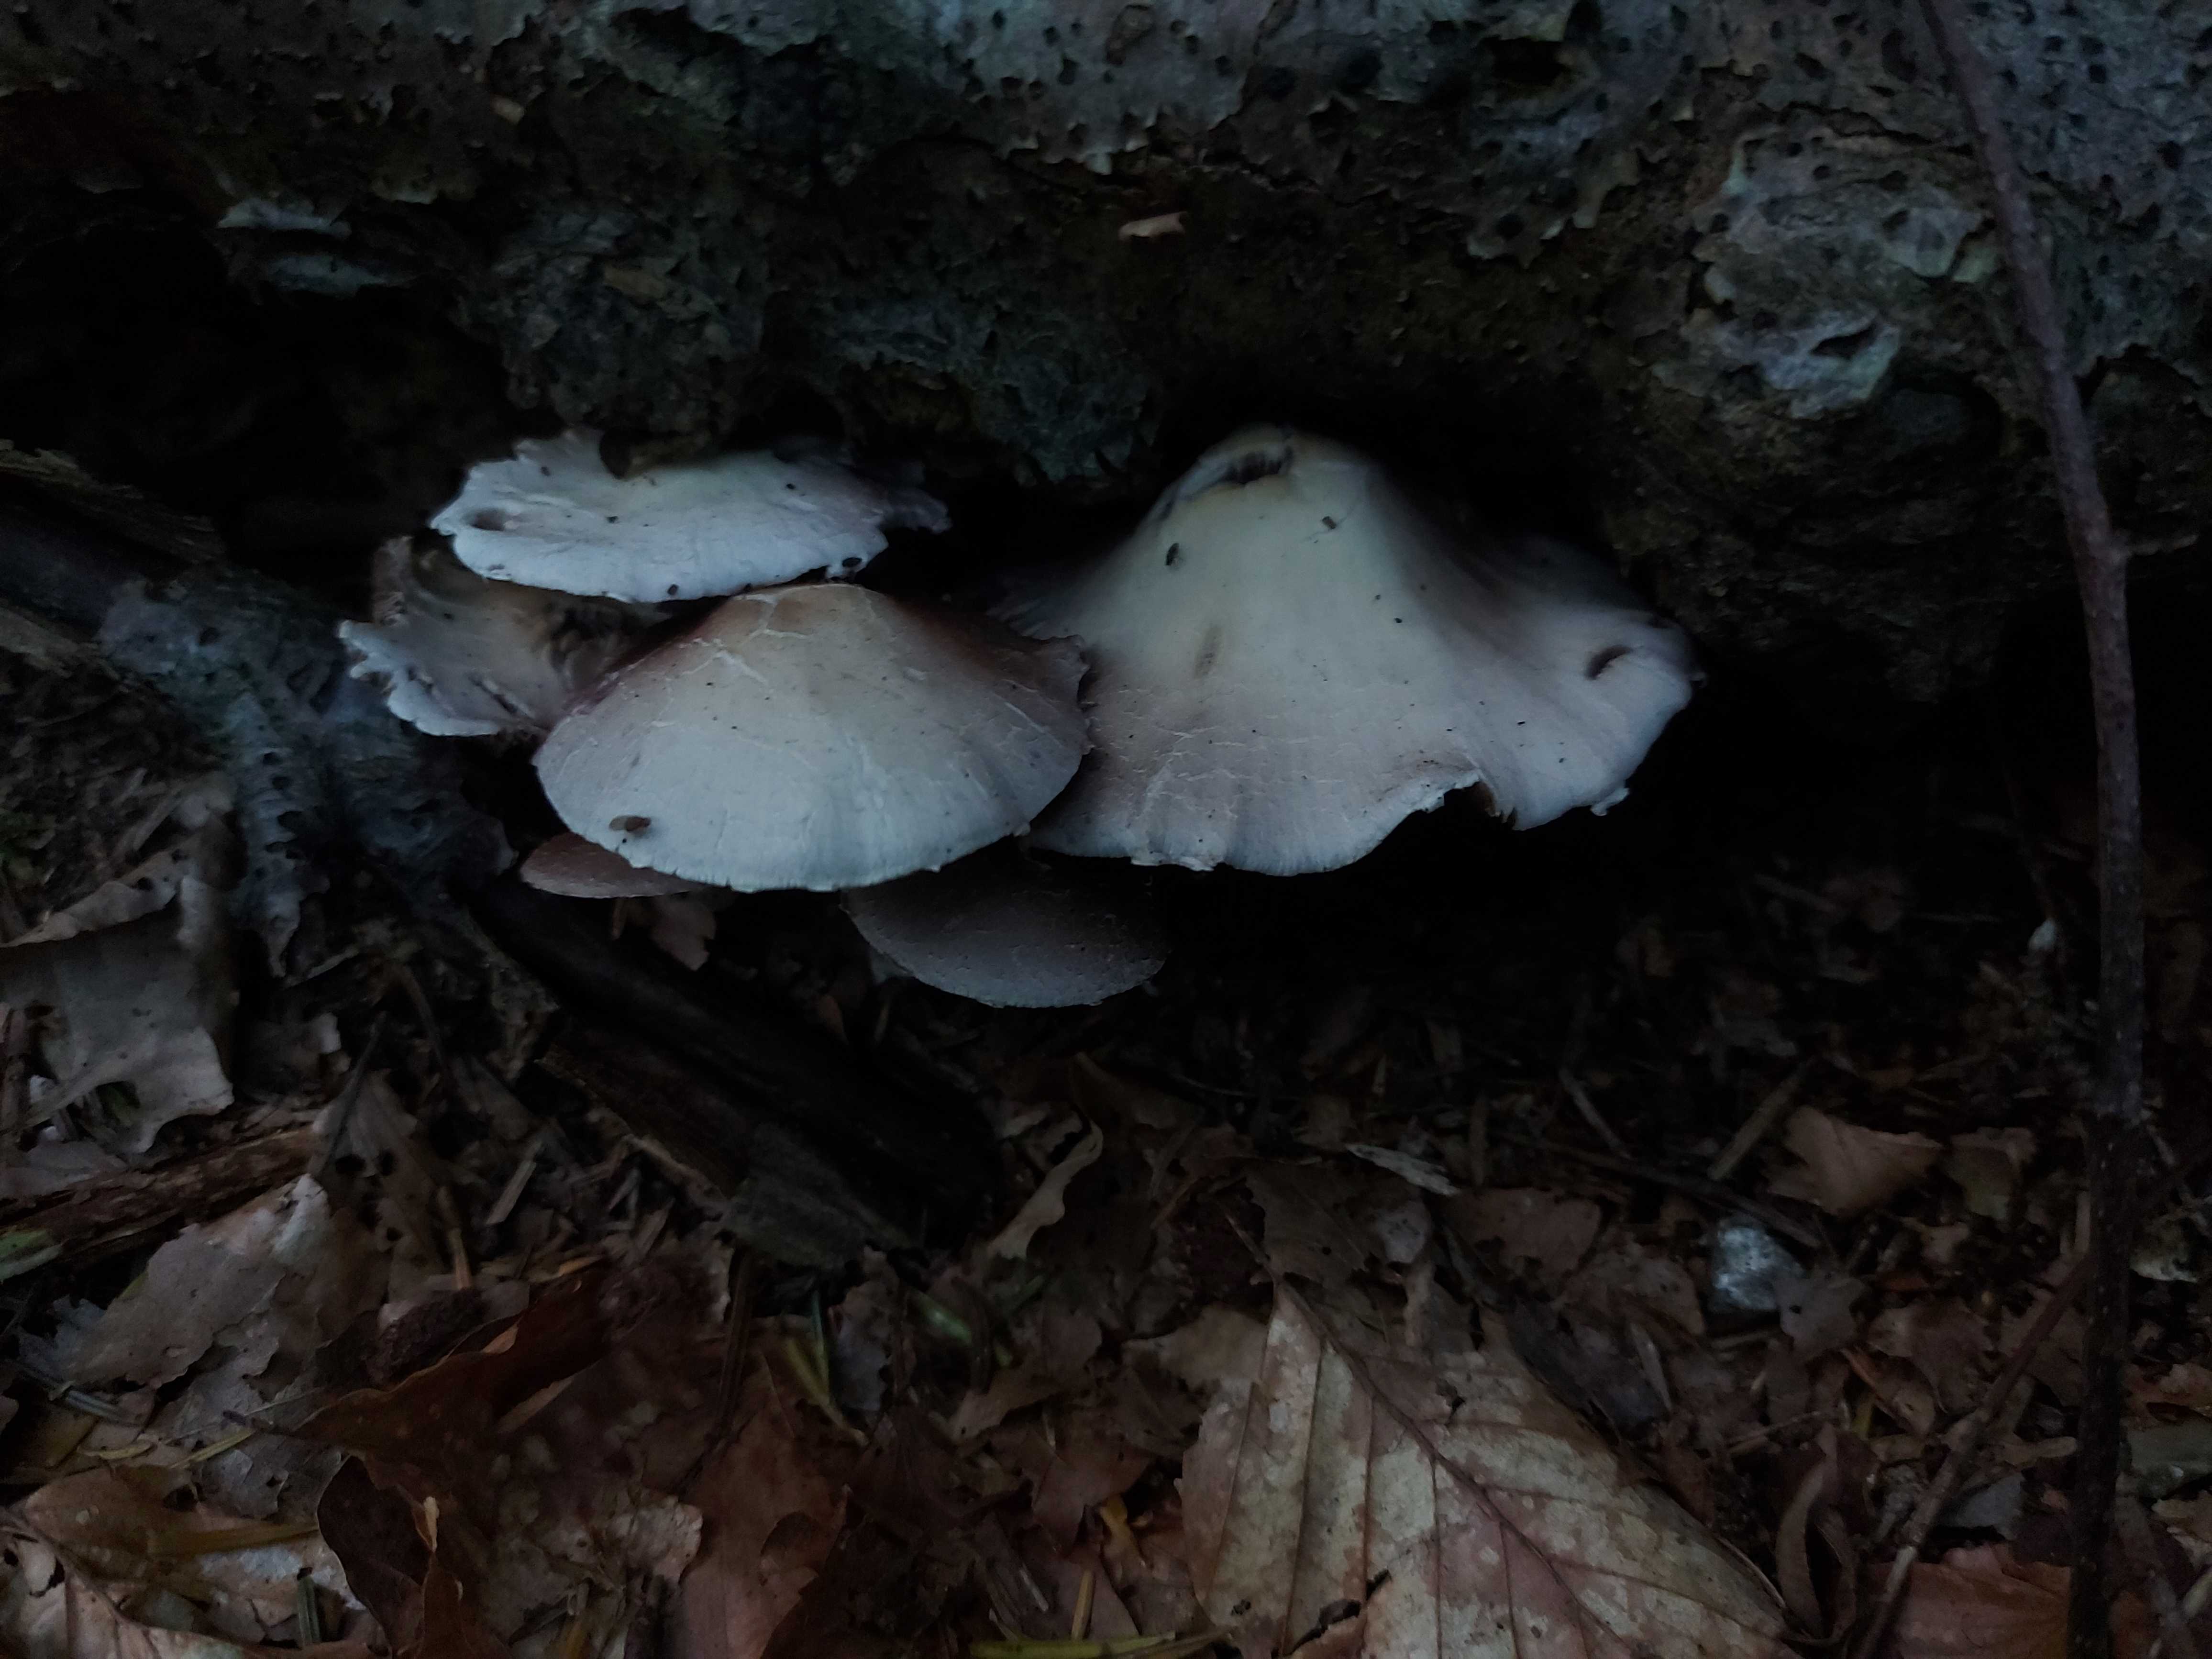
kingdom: Fungi
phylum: Basidiomycota
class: Agaricomycetes
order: Agaricales
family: Psathyrellaceae
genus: Candolleomyces
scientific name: Candolleomyces candolleanus
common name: Candolles mørkhat
